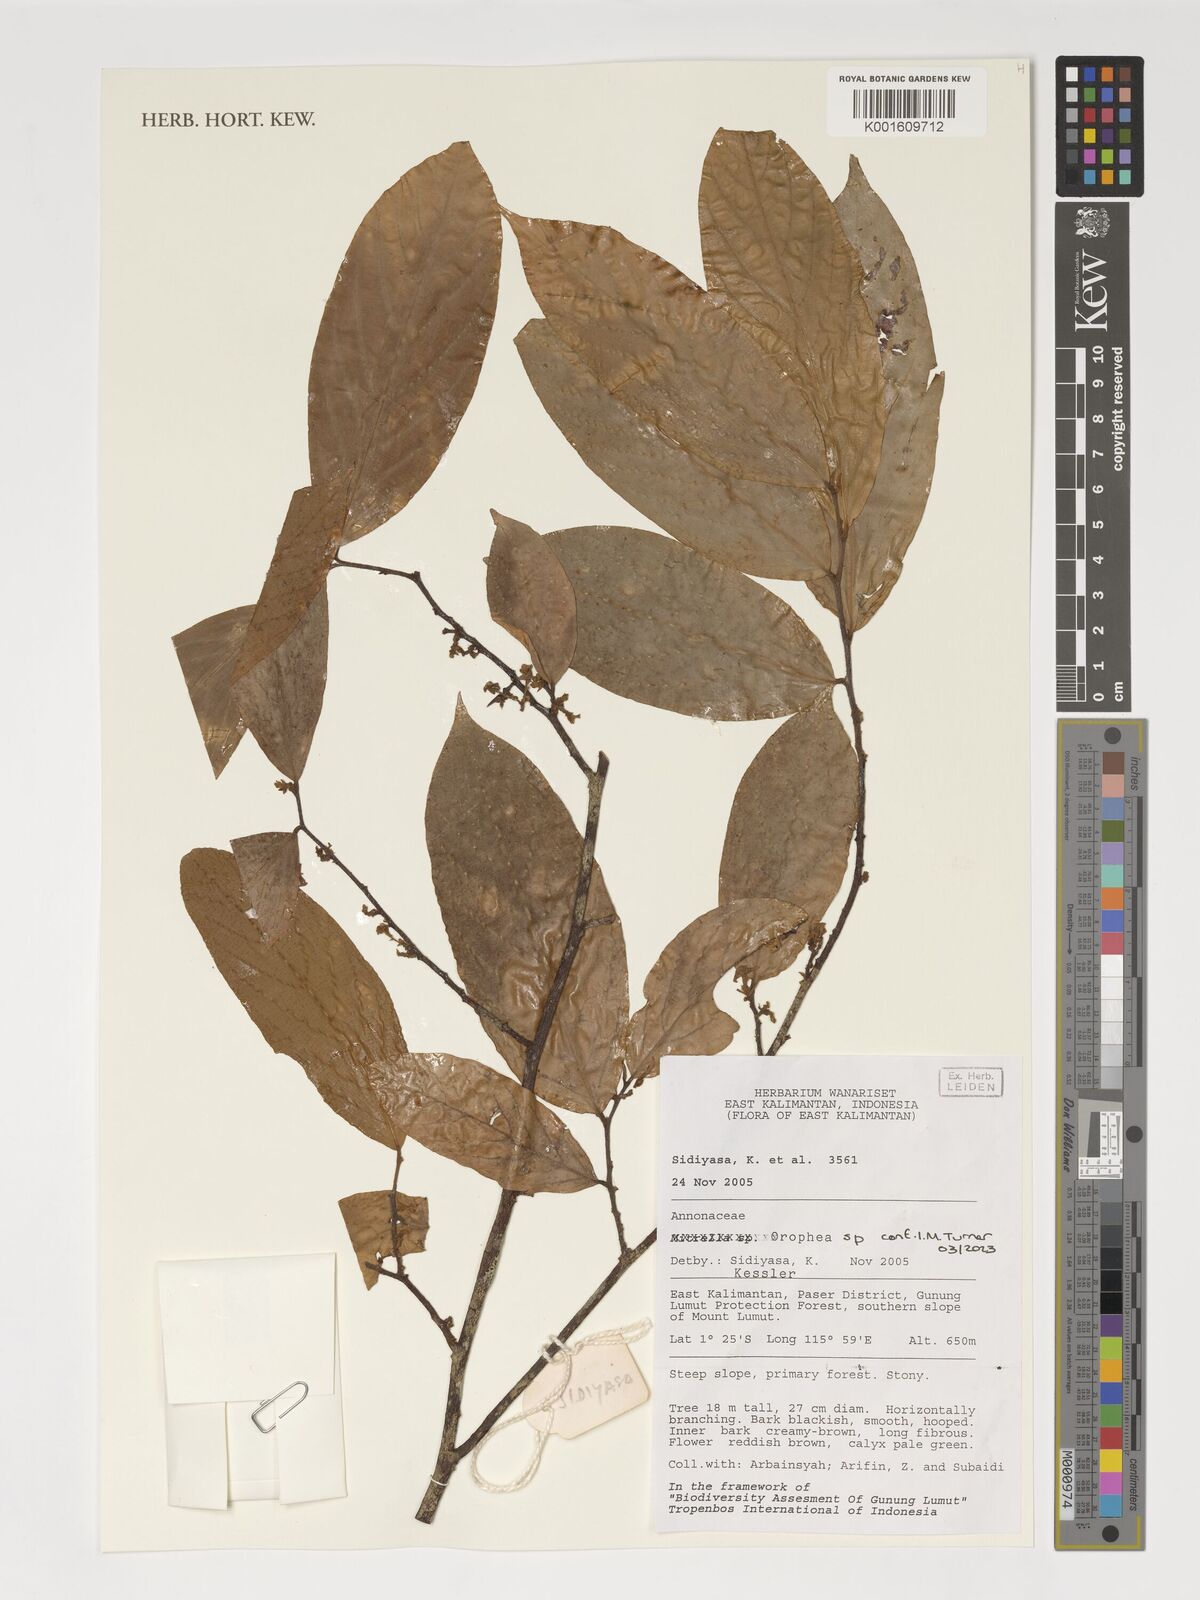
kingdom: Plantae
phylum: Tracheophyta
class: Magnoliopsida
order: Magnoliales
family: Annonaceae
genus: Orophea
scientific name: Orophea
